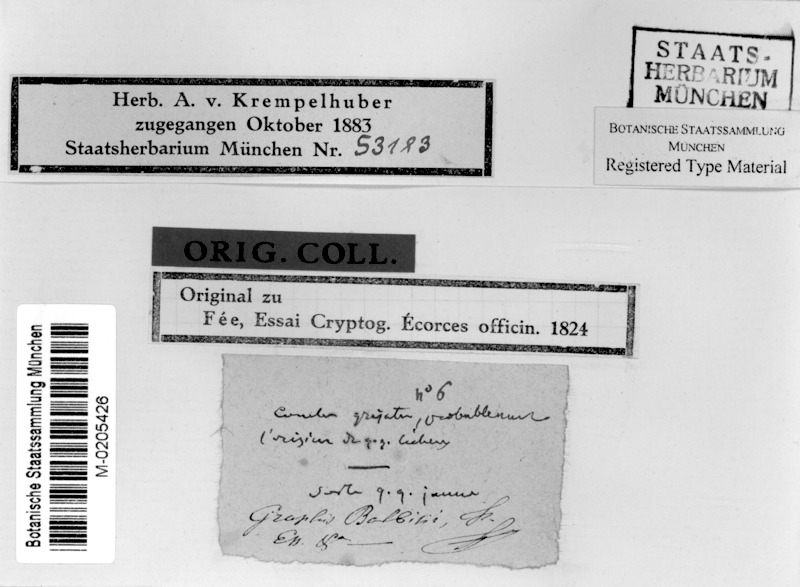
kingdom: Fungi
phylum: Ascomycota
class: Lecanoromycetes
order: Ostropales
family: Graphidaceae
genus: Allographa
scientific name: Allographa balbisii
